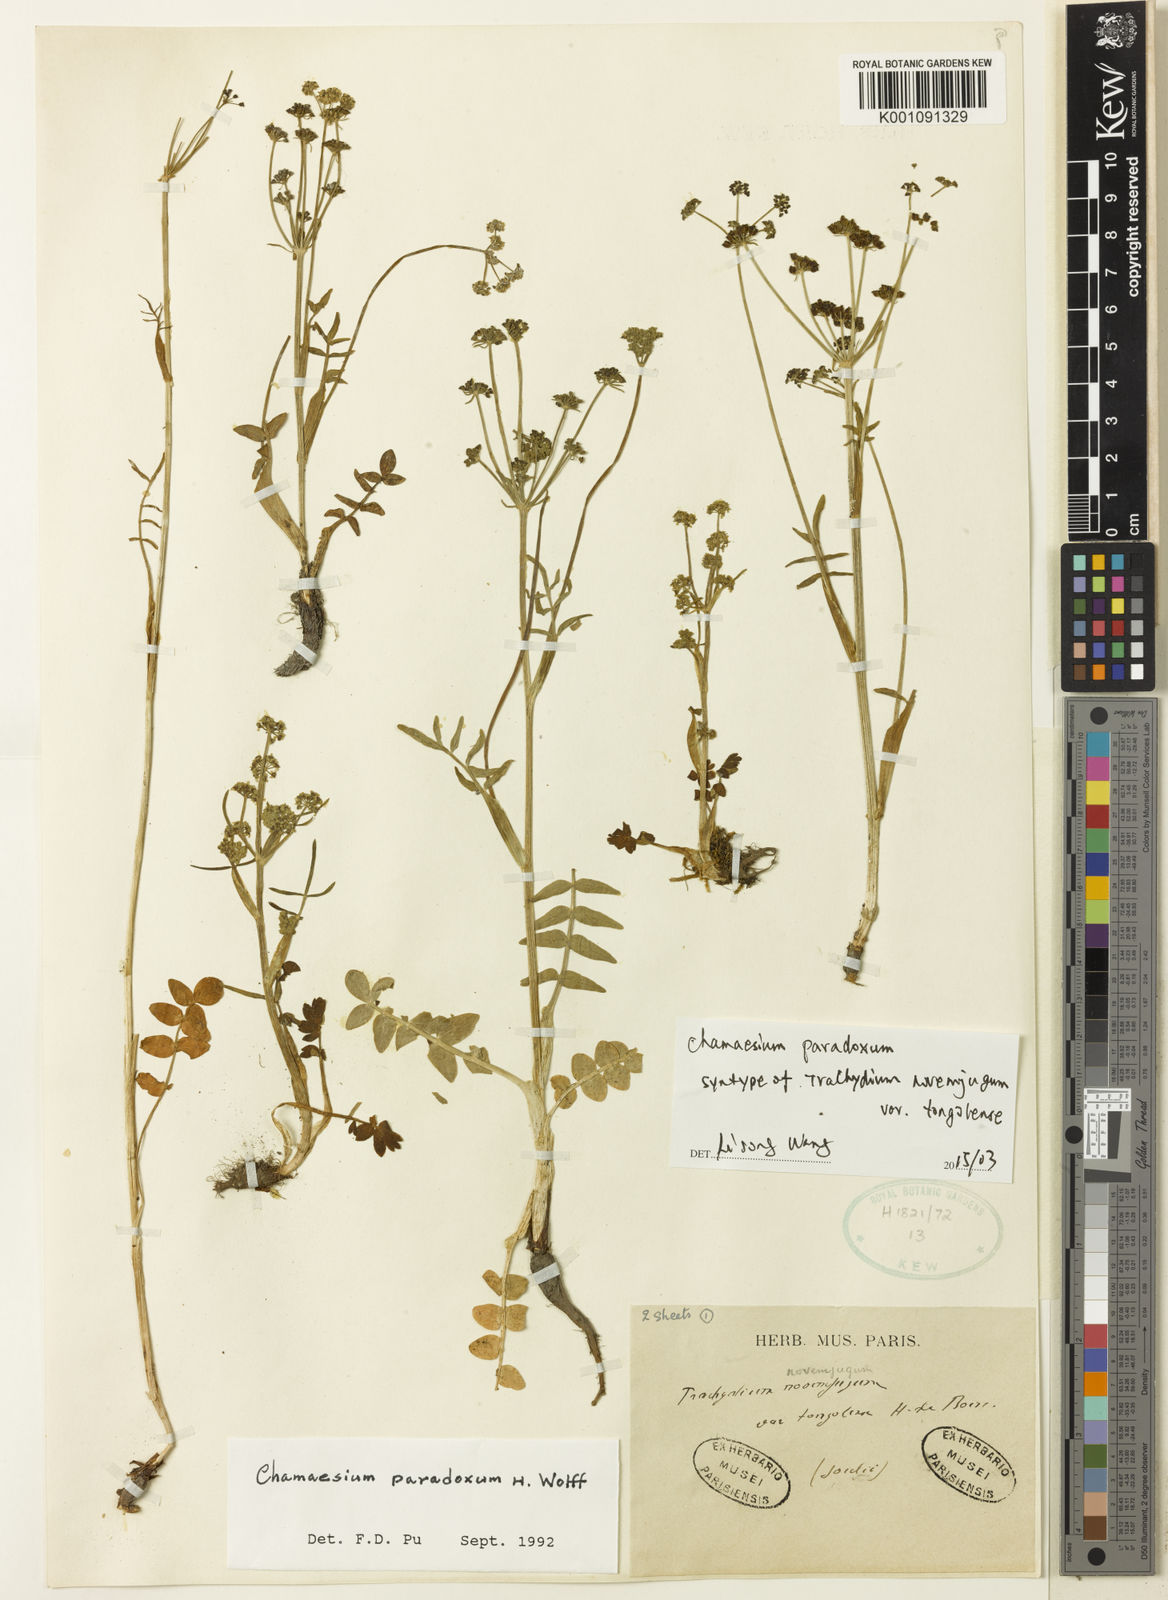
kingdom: Plantae
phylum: Tracheophyta
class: Magnoliopsida
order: Apiales
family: Apiaceae
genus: Chamaesium
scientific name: Chamaesium paradoxum
